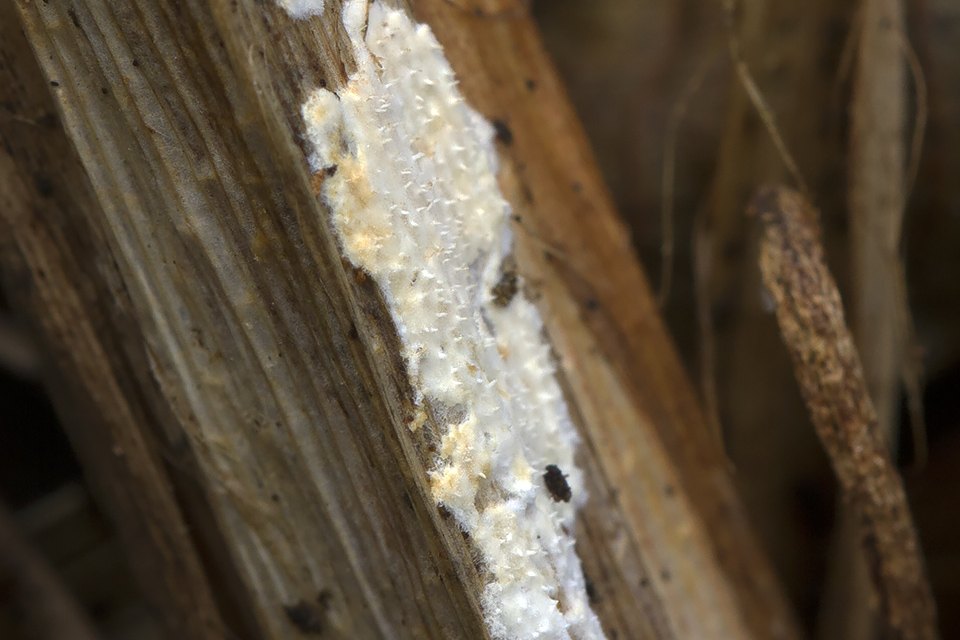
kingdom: Fungi
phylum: Basidiomycota
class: Agaricomycetes
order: Polyporales
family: Polyporaceae
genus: Epithele
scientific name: Epithele typhae
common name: starpig
